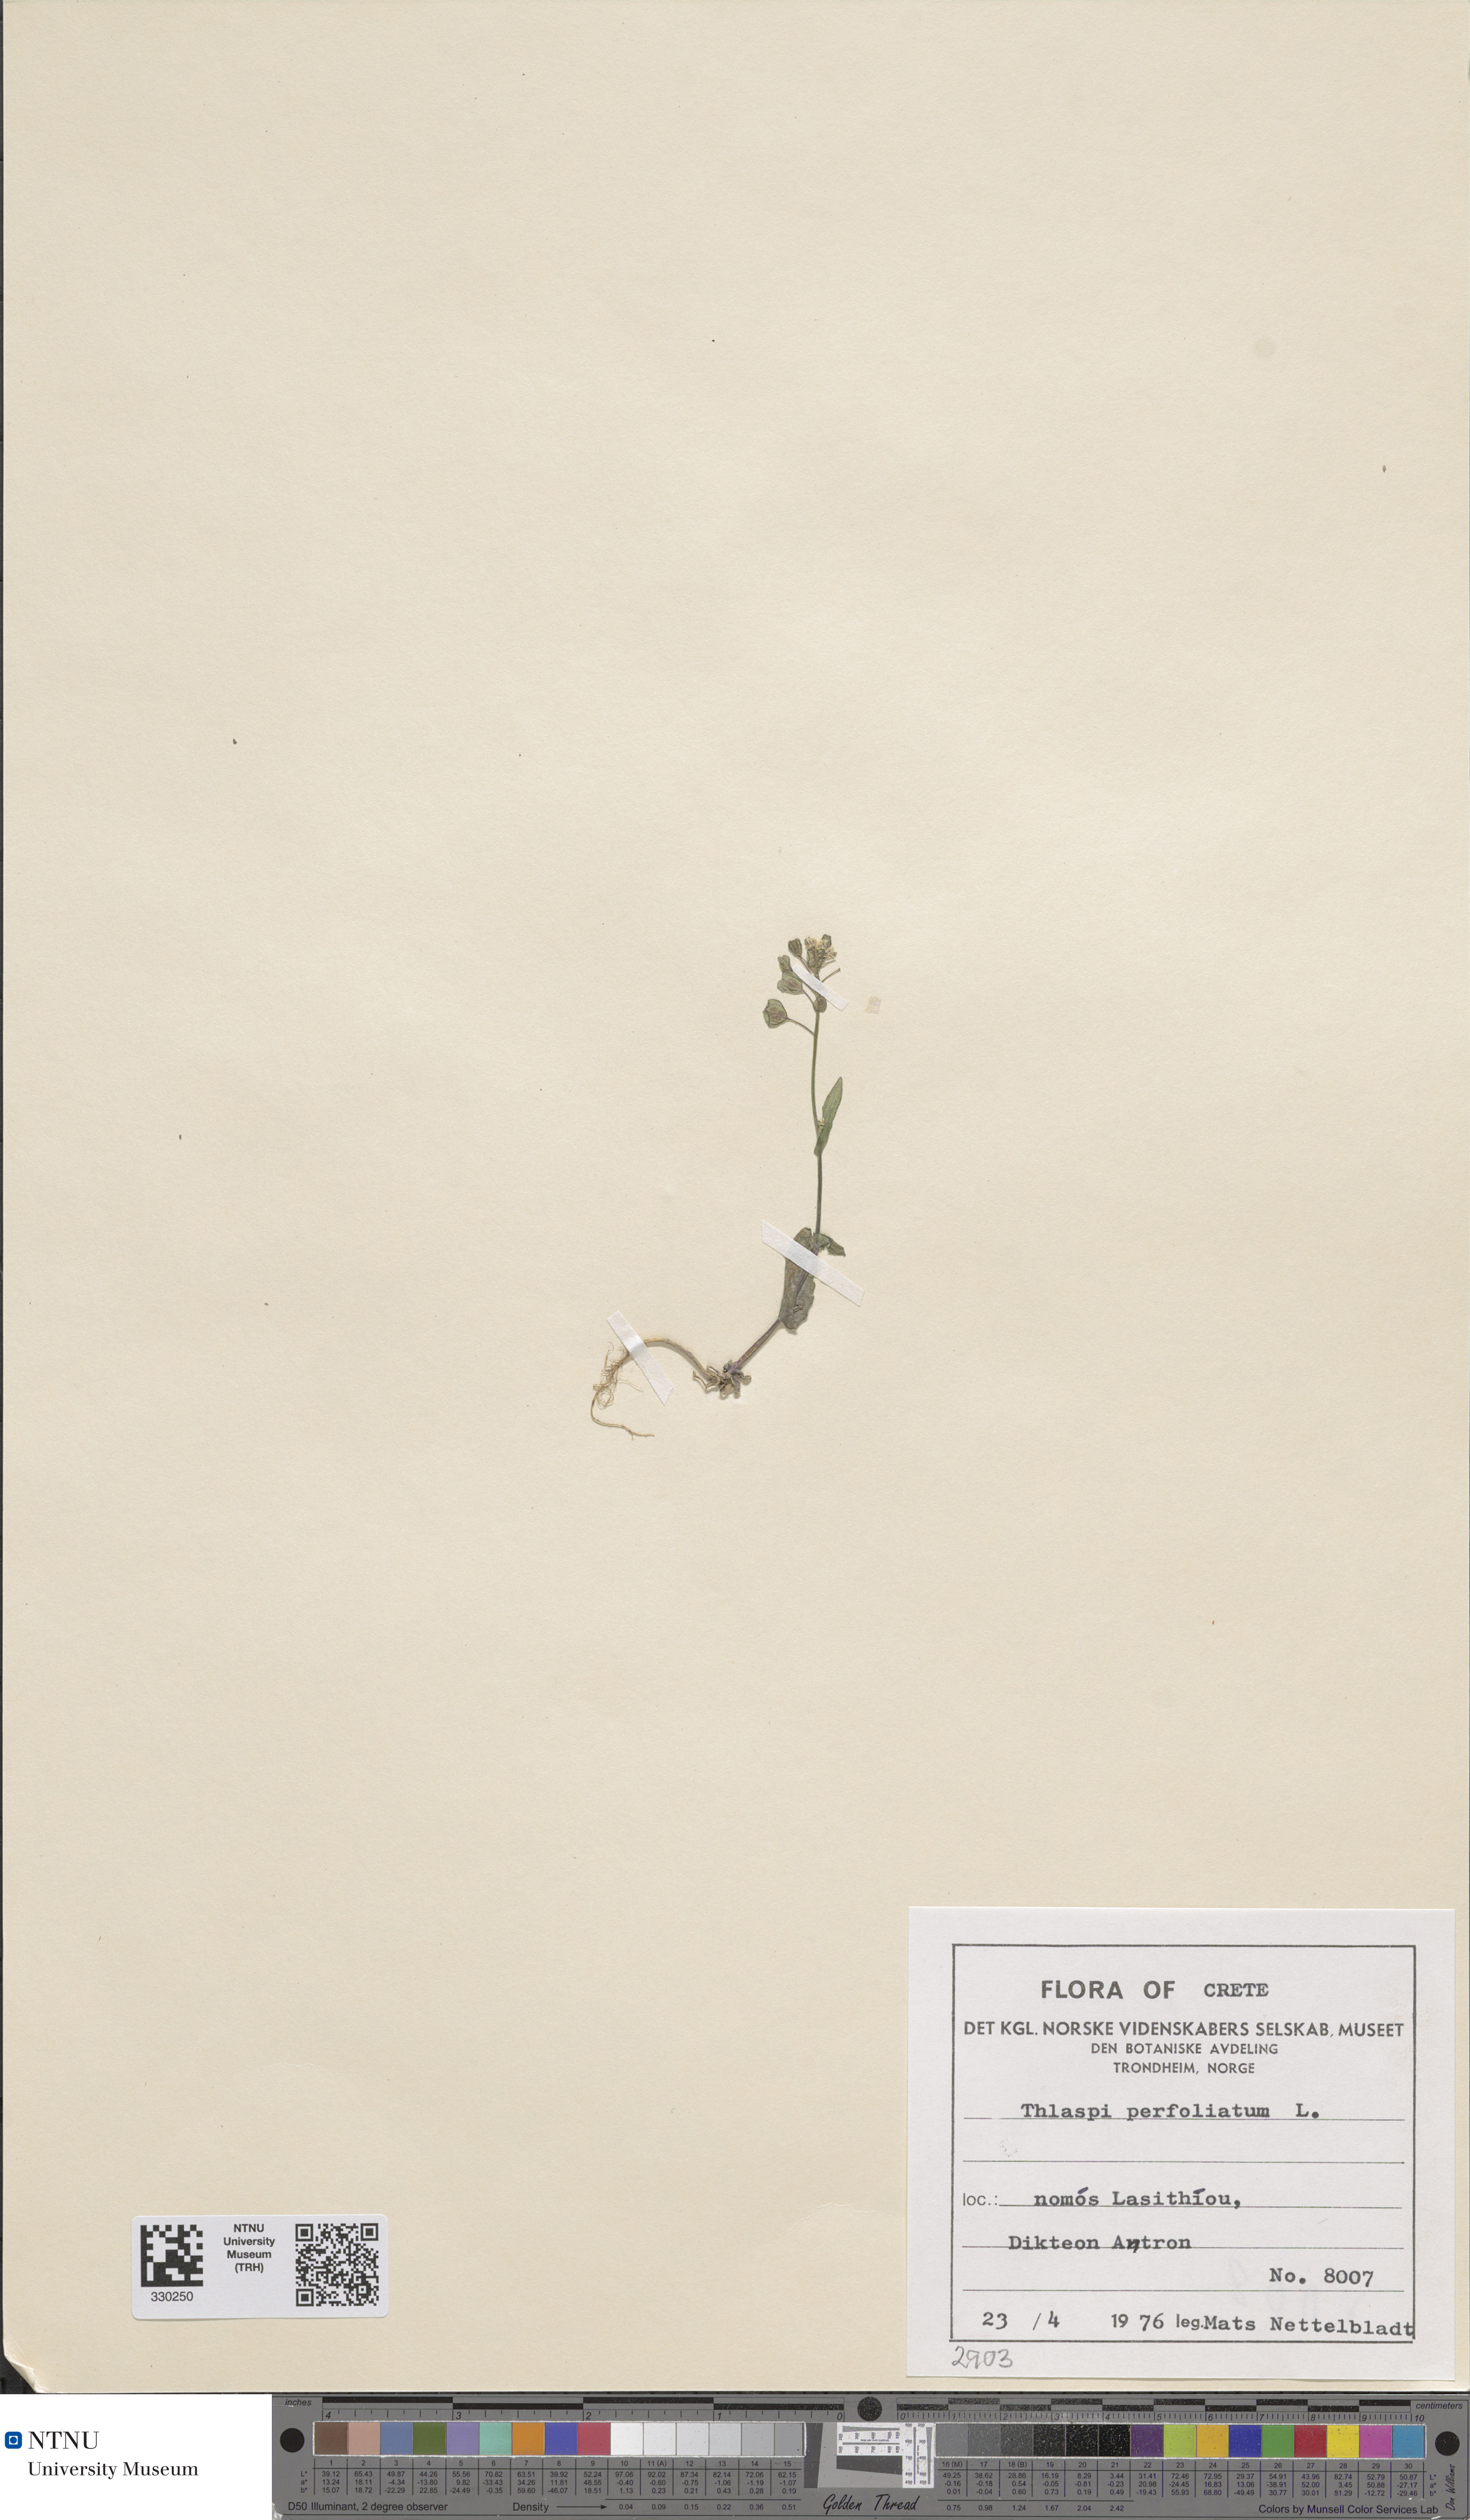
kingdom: Plantae
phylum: Tracheophyta
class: Magnoliopsida
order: Brassicales
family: Brassicaceae
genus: Noccaea
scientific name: Noccaea perfoliata
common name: Perfoliate pennycress
